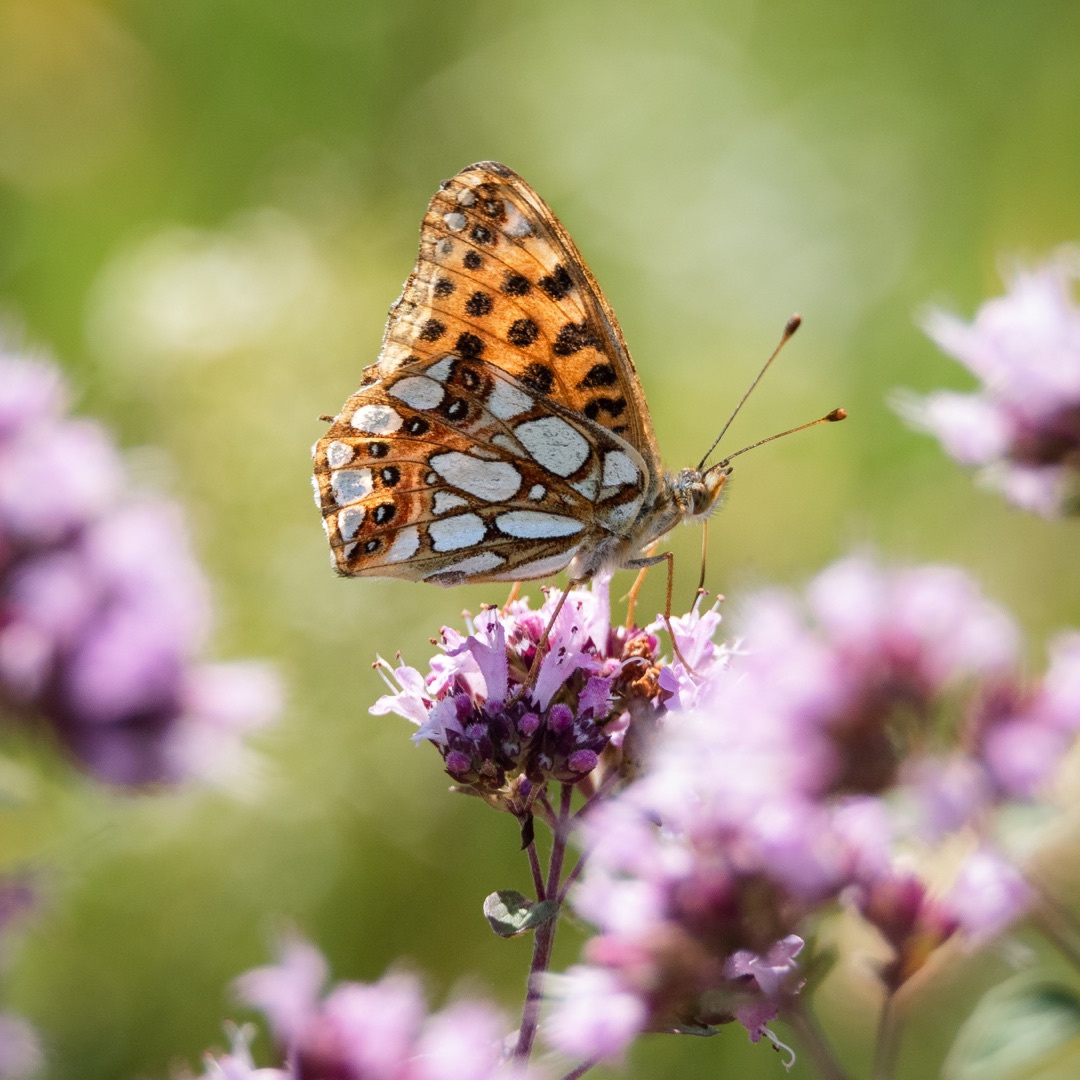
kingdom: Animalia
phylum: Arthropoda
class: Insecta
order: Lepidoptera
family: Nymphalidae
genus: Issoria
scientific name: Issoria lathonia
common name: Storplettet perlemorsommerfugl
